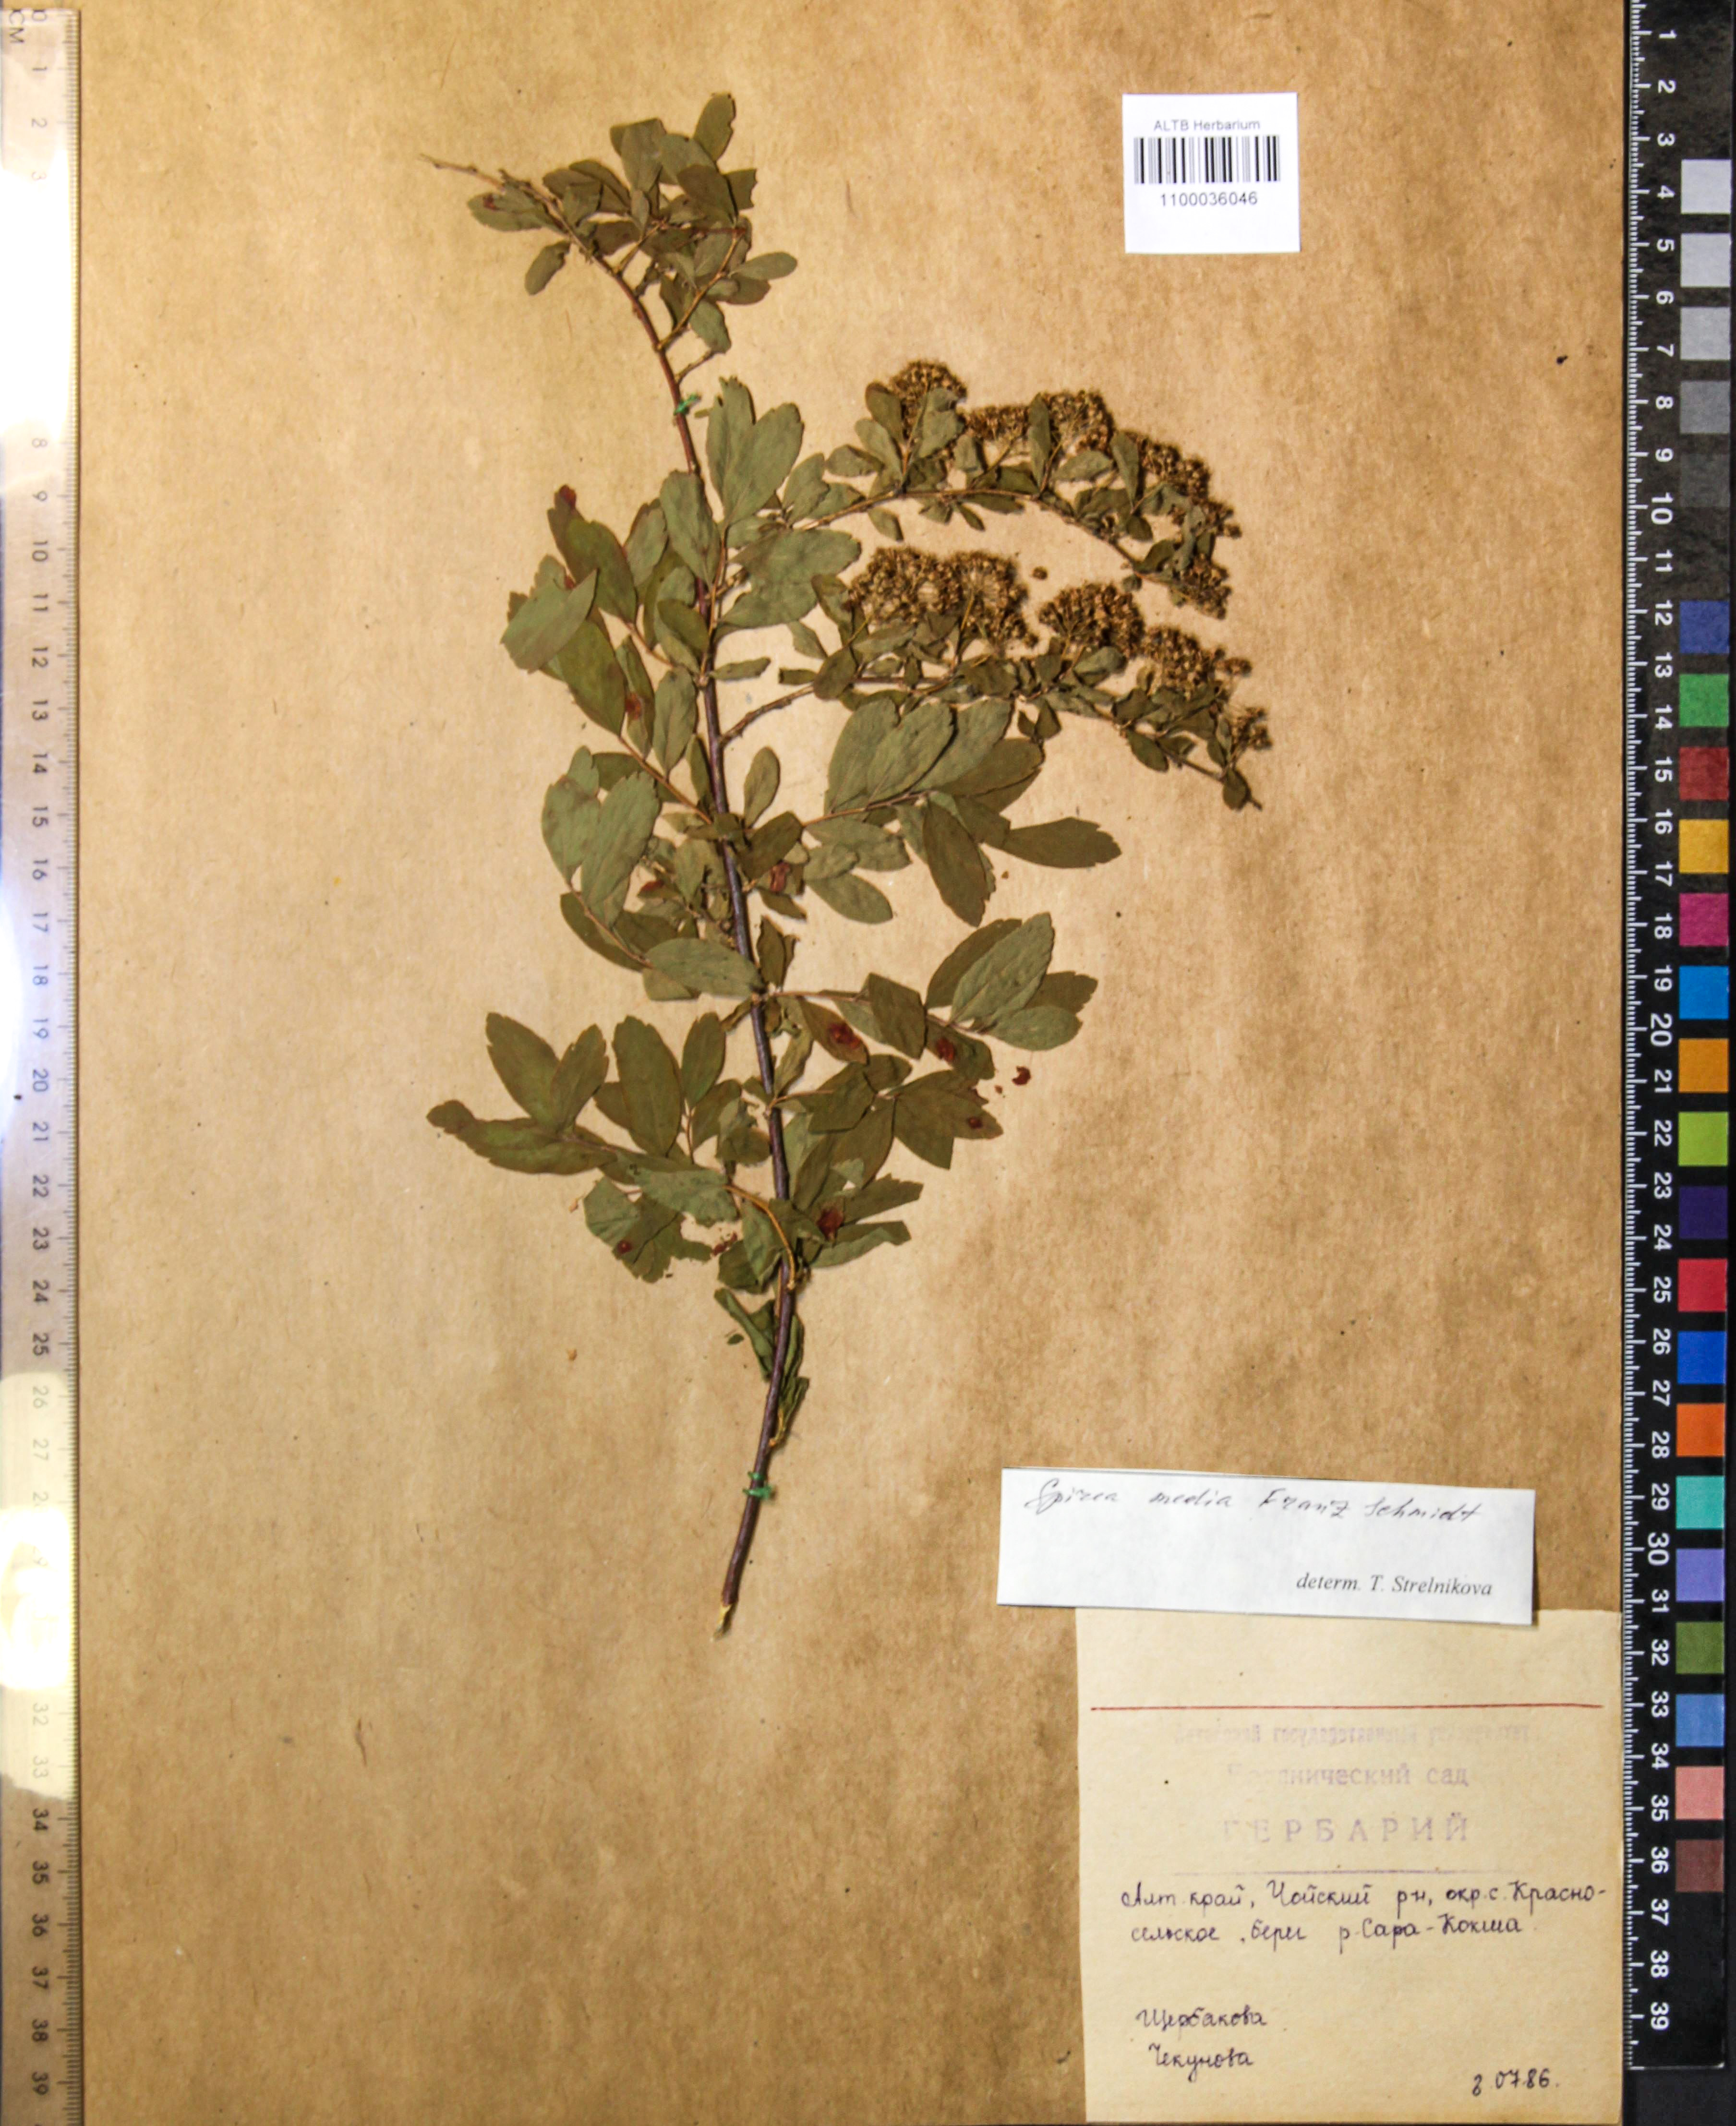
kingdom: Plantae
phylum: Tracheophyta
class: Magnoliopsida
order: Rosales
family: Rosaceae
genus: Spiraea
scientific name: Spiraea media
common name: Russian spiraea
